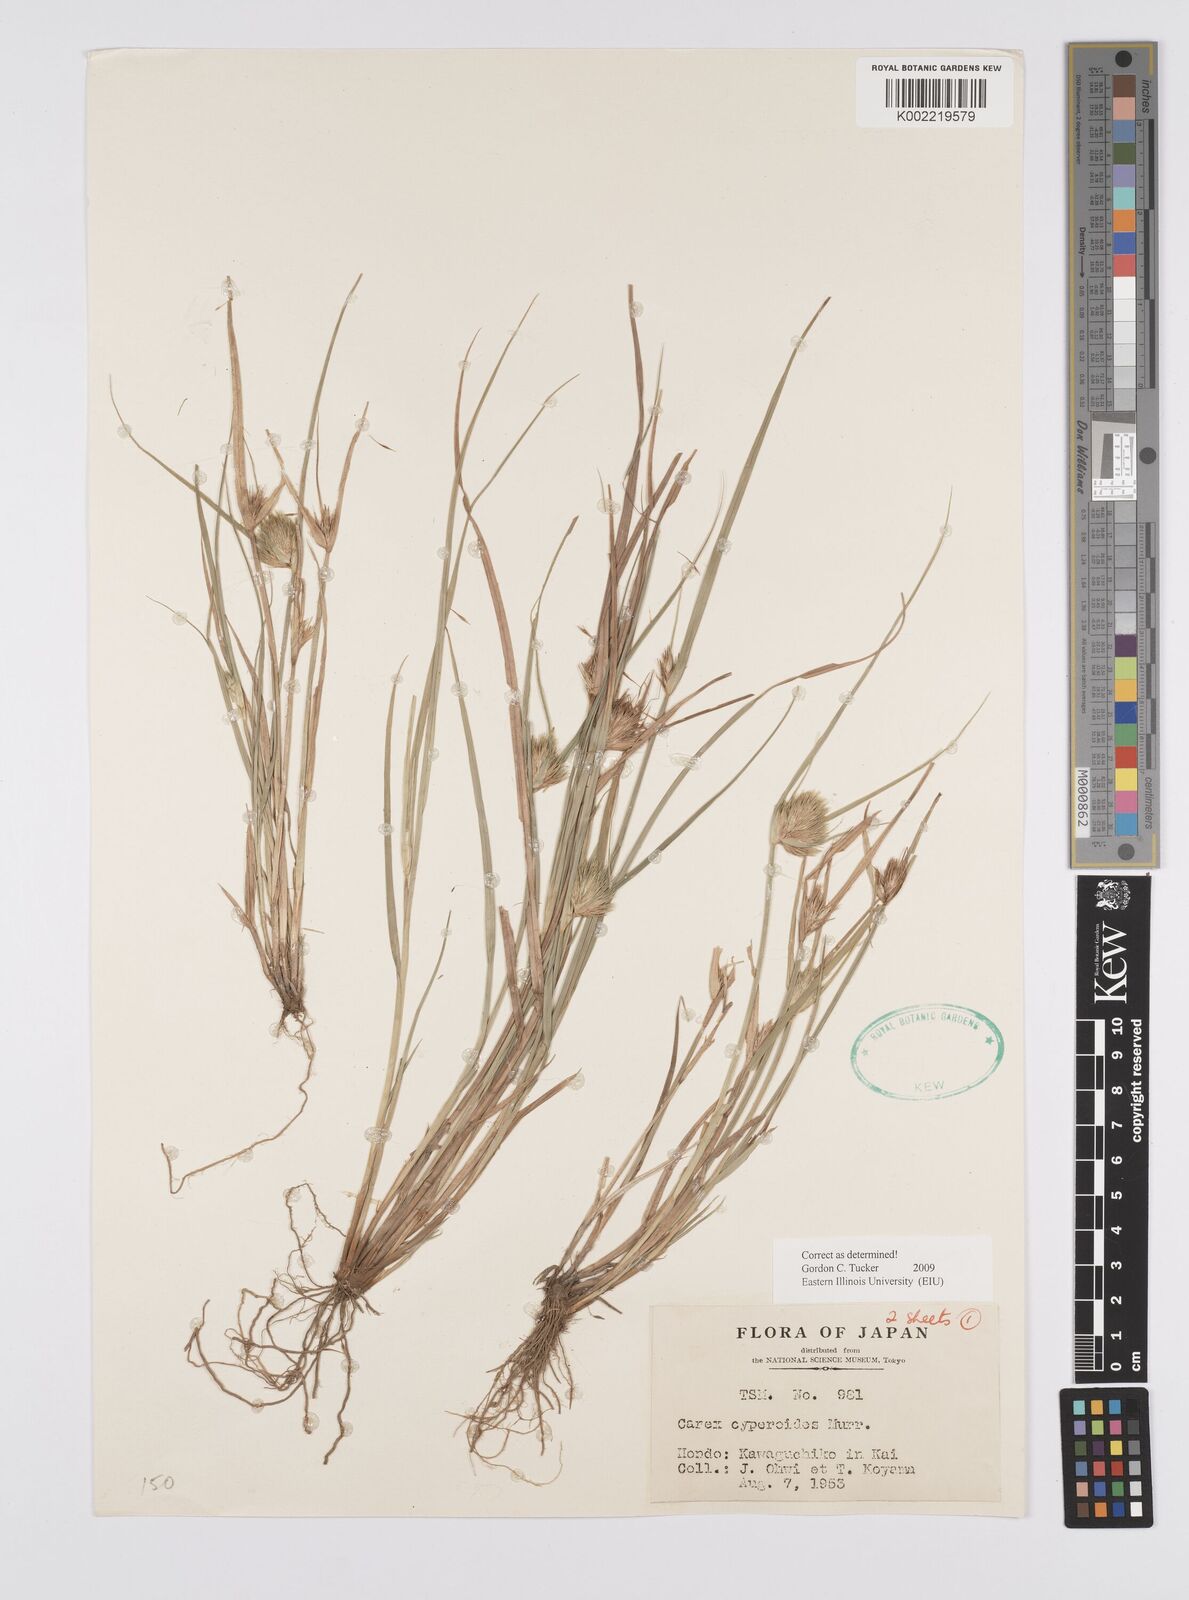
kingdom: Plantae
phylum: Tracheophyta
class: Liliopsida
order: Poales
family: Cyperaceae
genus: Carex
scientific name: Carex bohemica
